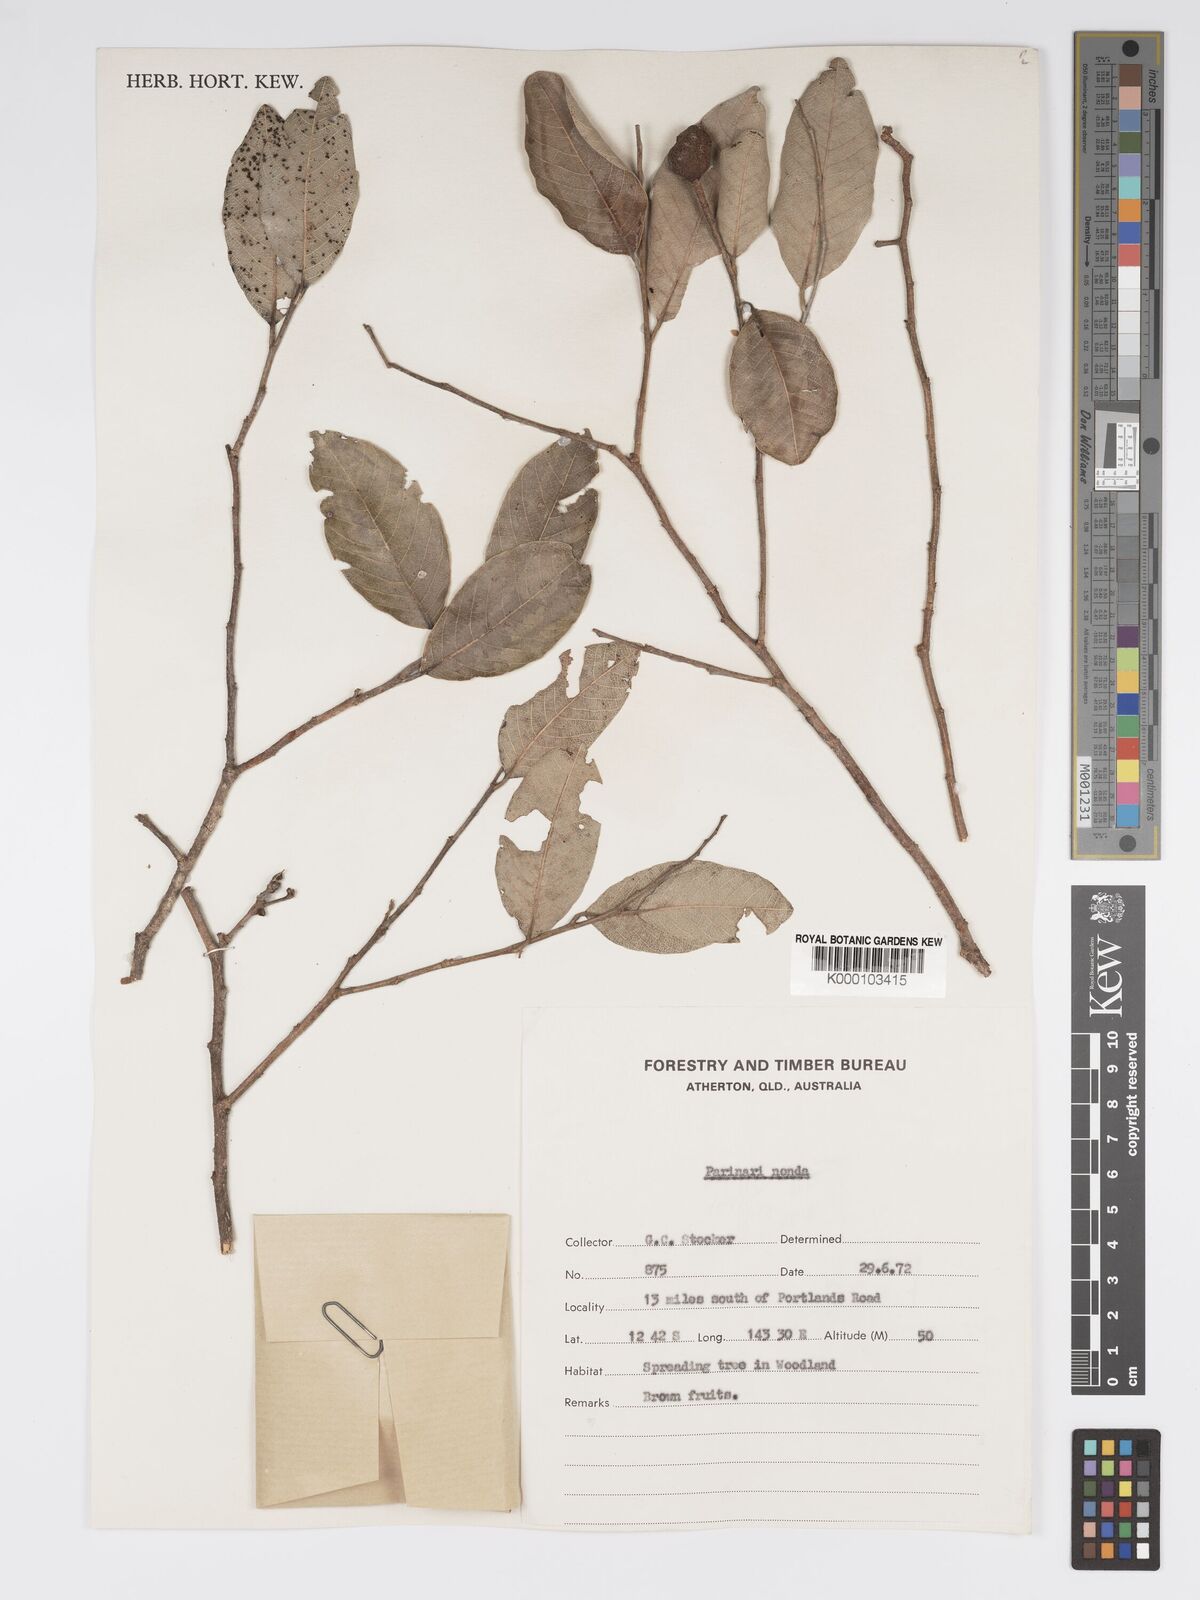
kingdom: Plantae
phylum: Tracheophyta
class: Magnoliopsida
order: Malpighiales
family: Chrysobalanaceae
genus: Parinari
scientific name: Parinari nonda
